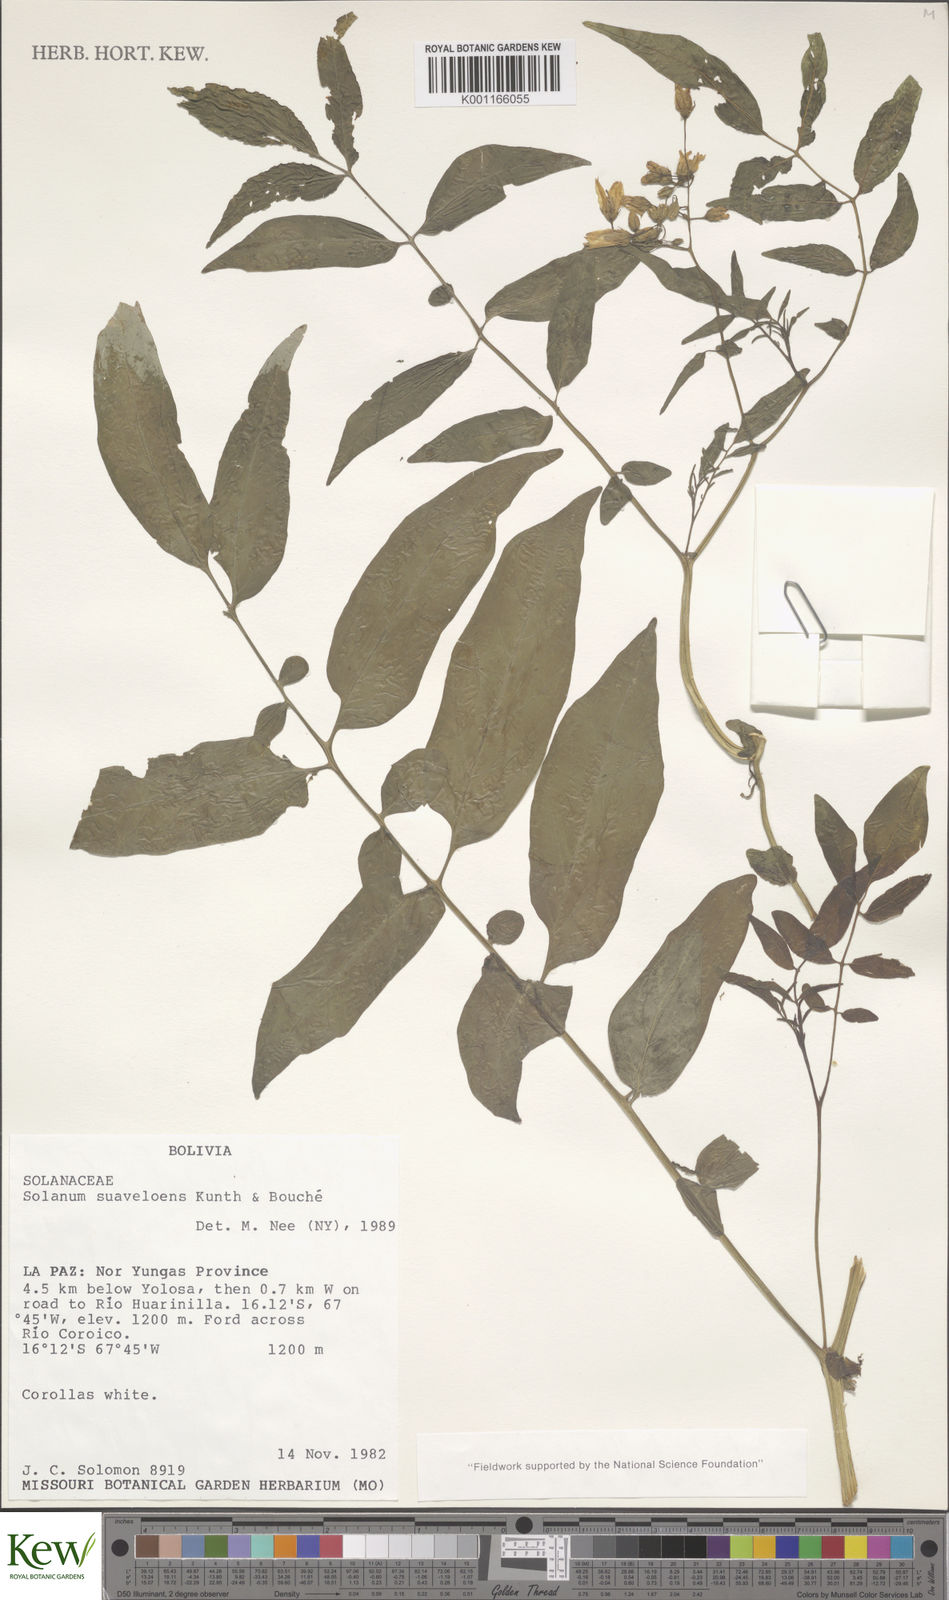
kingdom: Plantae
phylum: Tracheophyta
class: Magnoliopsida
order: Solanales
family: Solanaceae
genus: Solanum
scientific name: Solanum suaveolens
